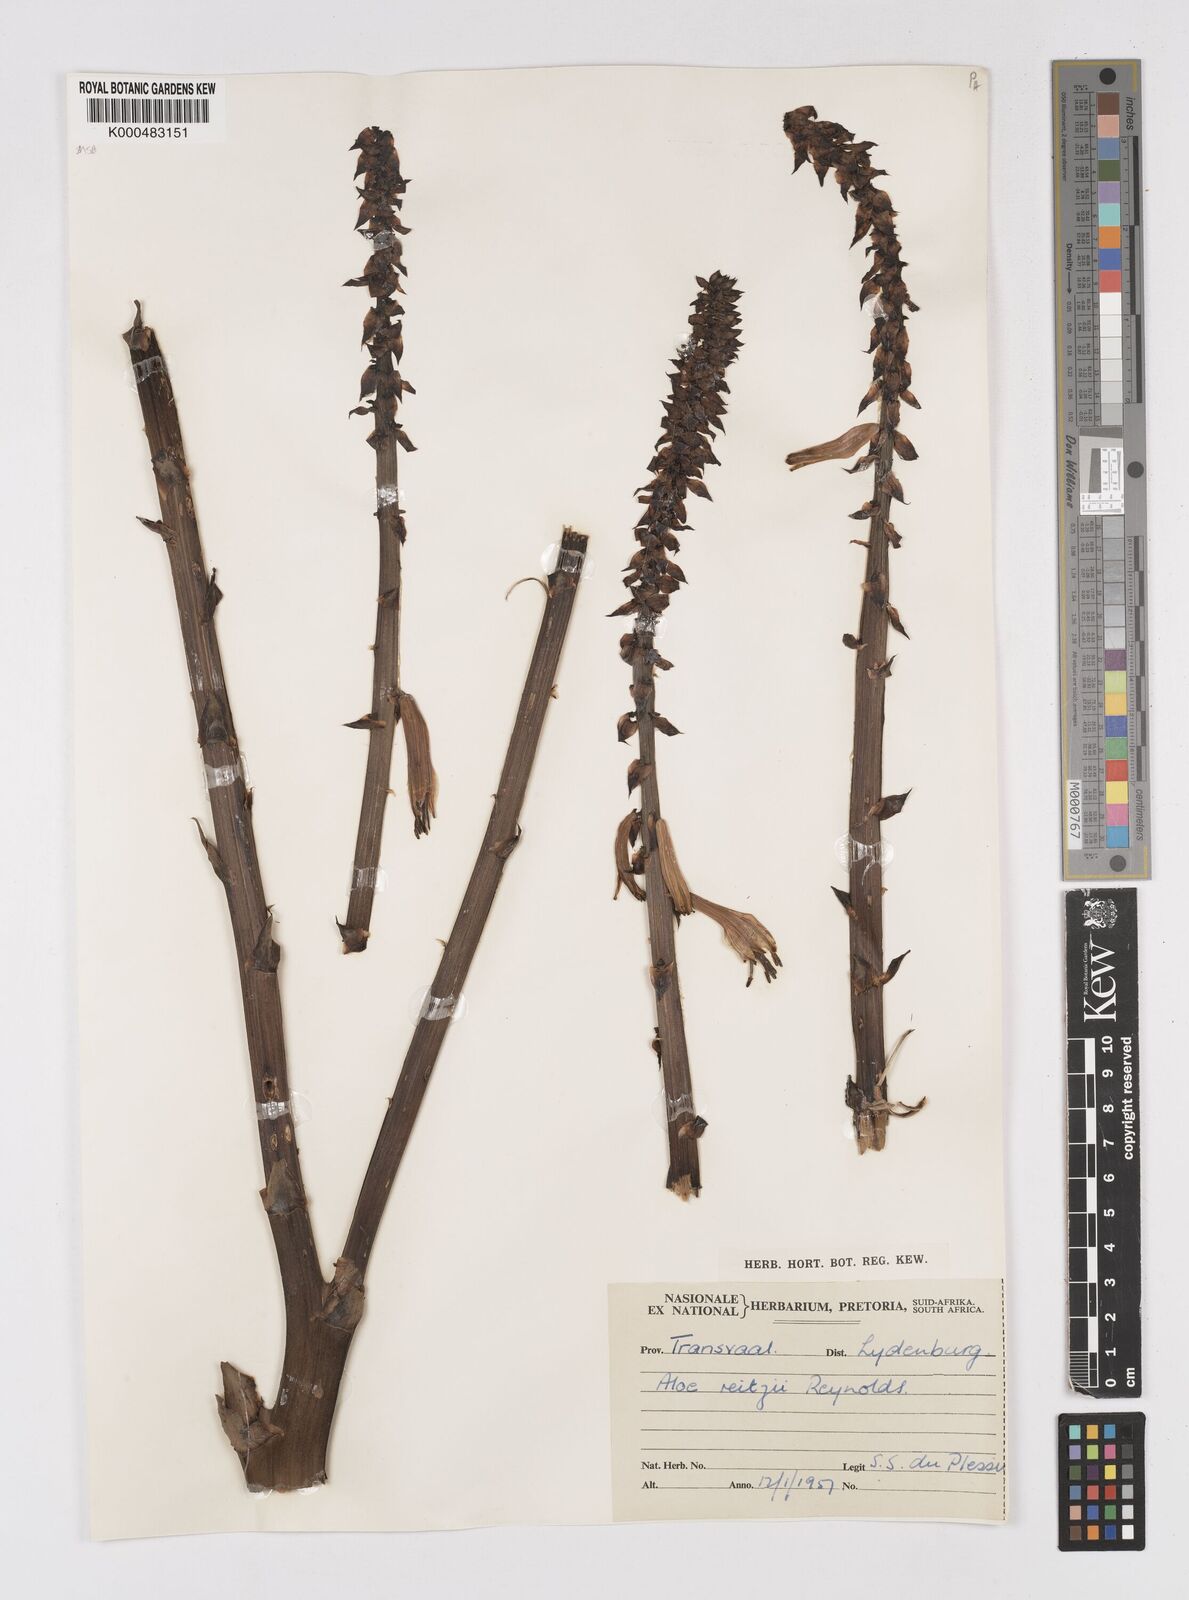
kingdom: Plantae
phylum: Tracheophyta
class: Liliopsida
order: Asparagales
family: Asphodelaceae
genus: Aloe
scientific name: Aloe reitzii
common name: Reitz's aloe
